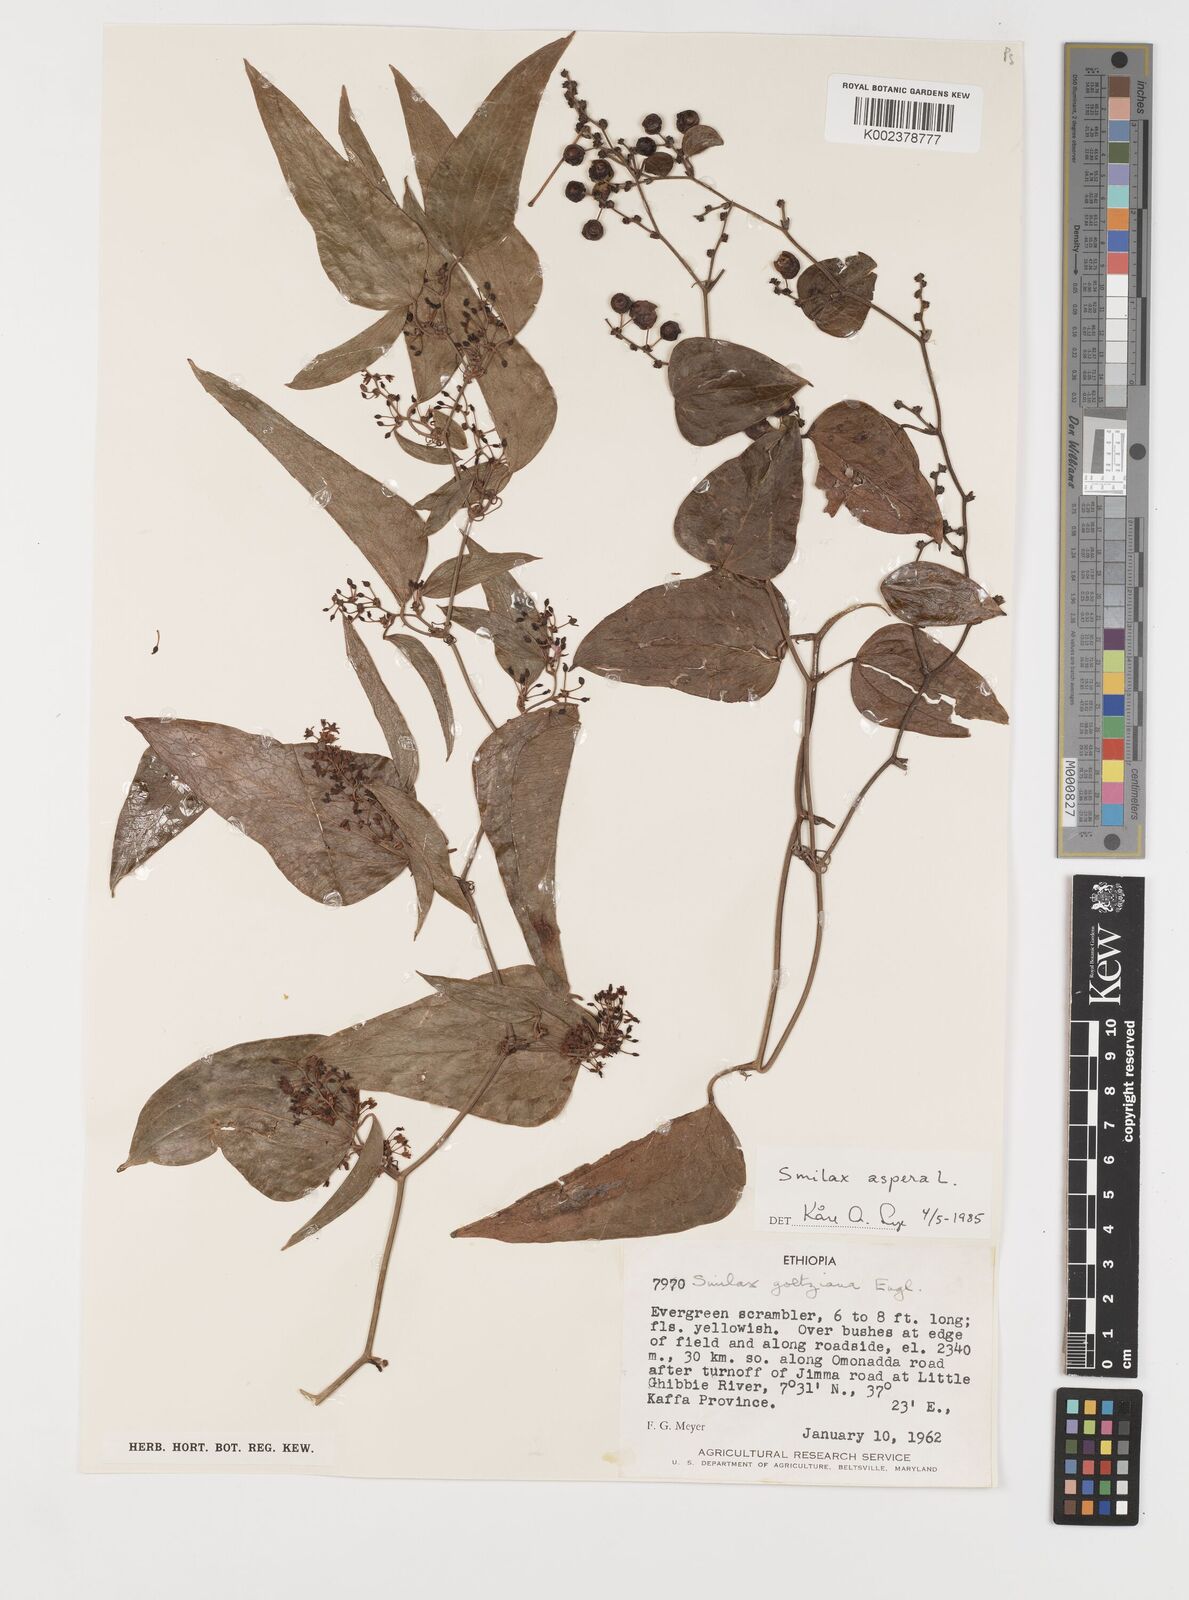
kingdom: Plantae
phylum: Tracheophyta
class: Liliopsida
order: Liliales
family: Smilacaceae
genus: Smilax
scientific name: Smilax aspera
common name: Common smilax
